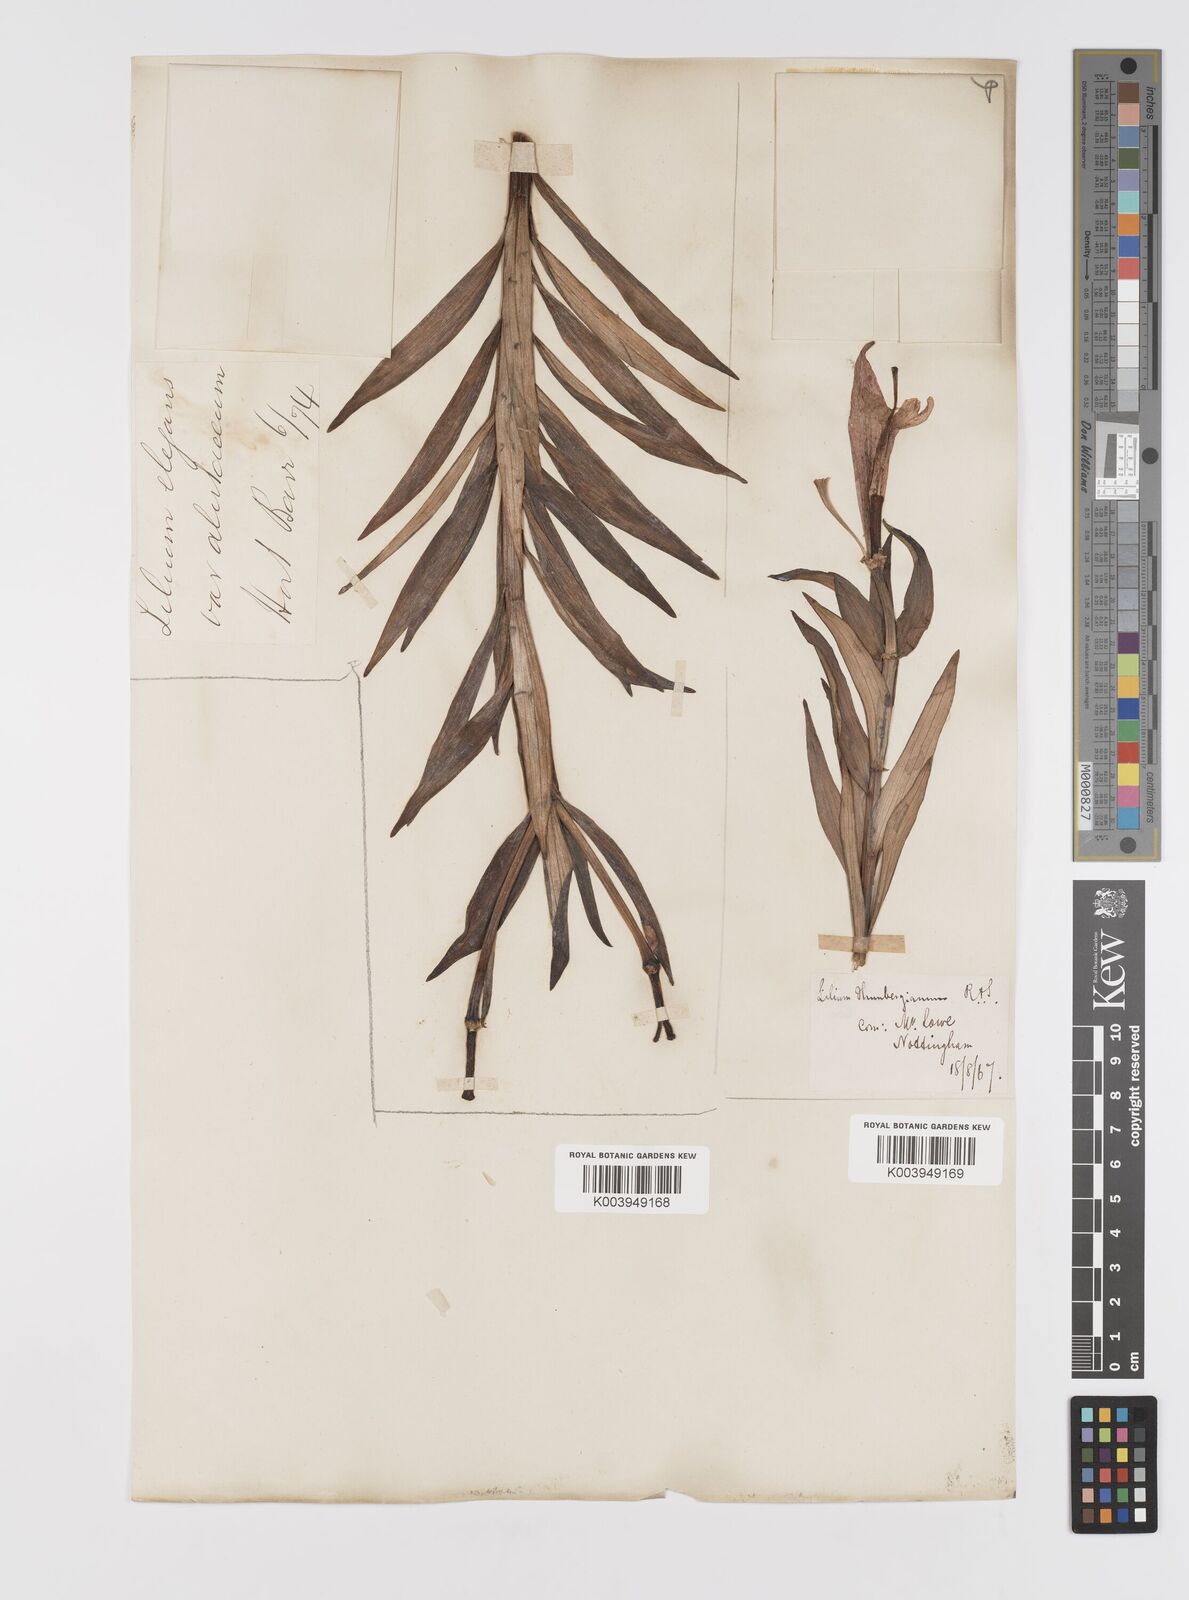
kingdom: Plantae
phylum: Tracheophyta
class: Liliopsida
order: Liliales
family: Liliaceae
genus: Lilium
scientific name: Lilium pensylvanicum
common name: Candlestick lily
